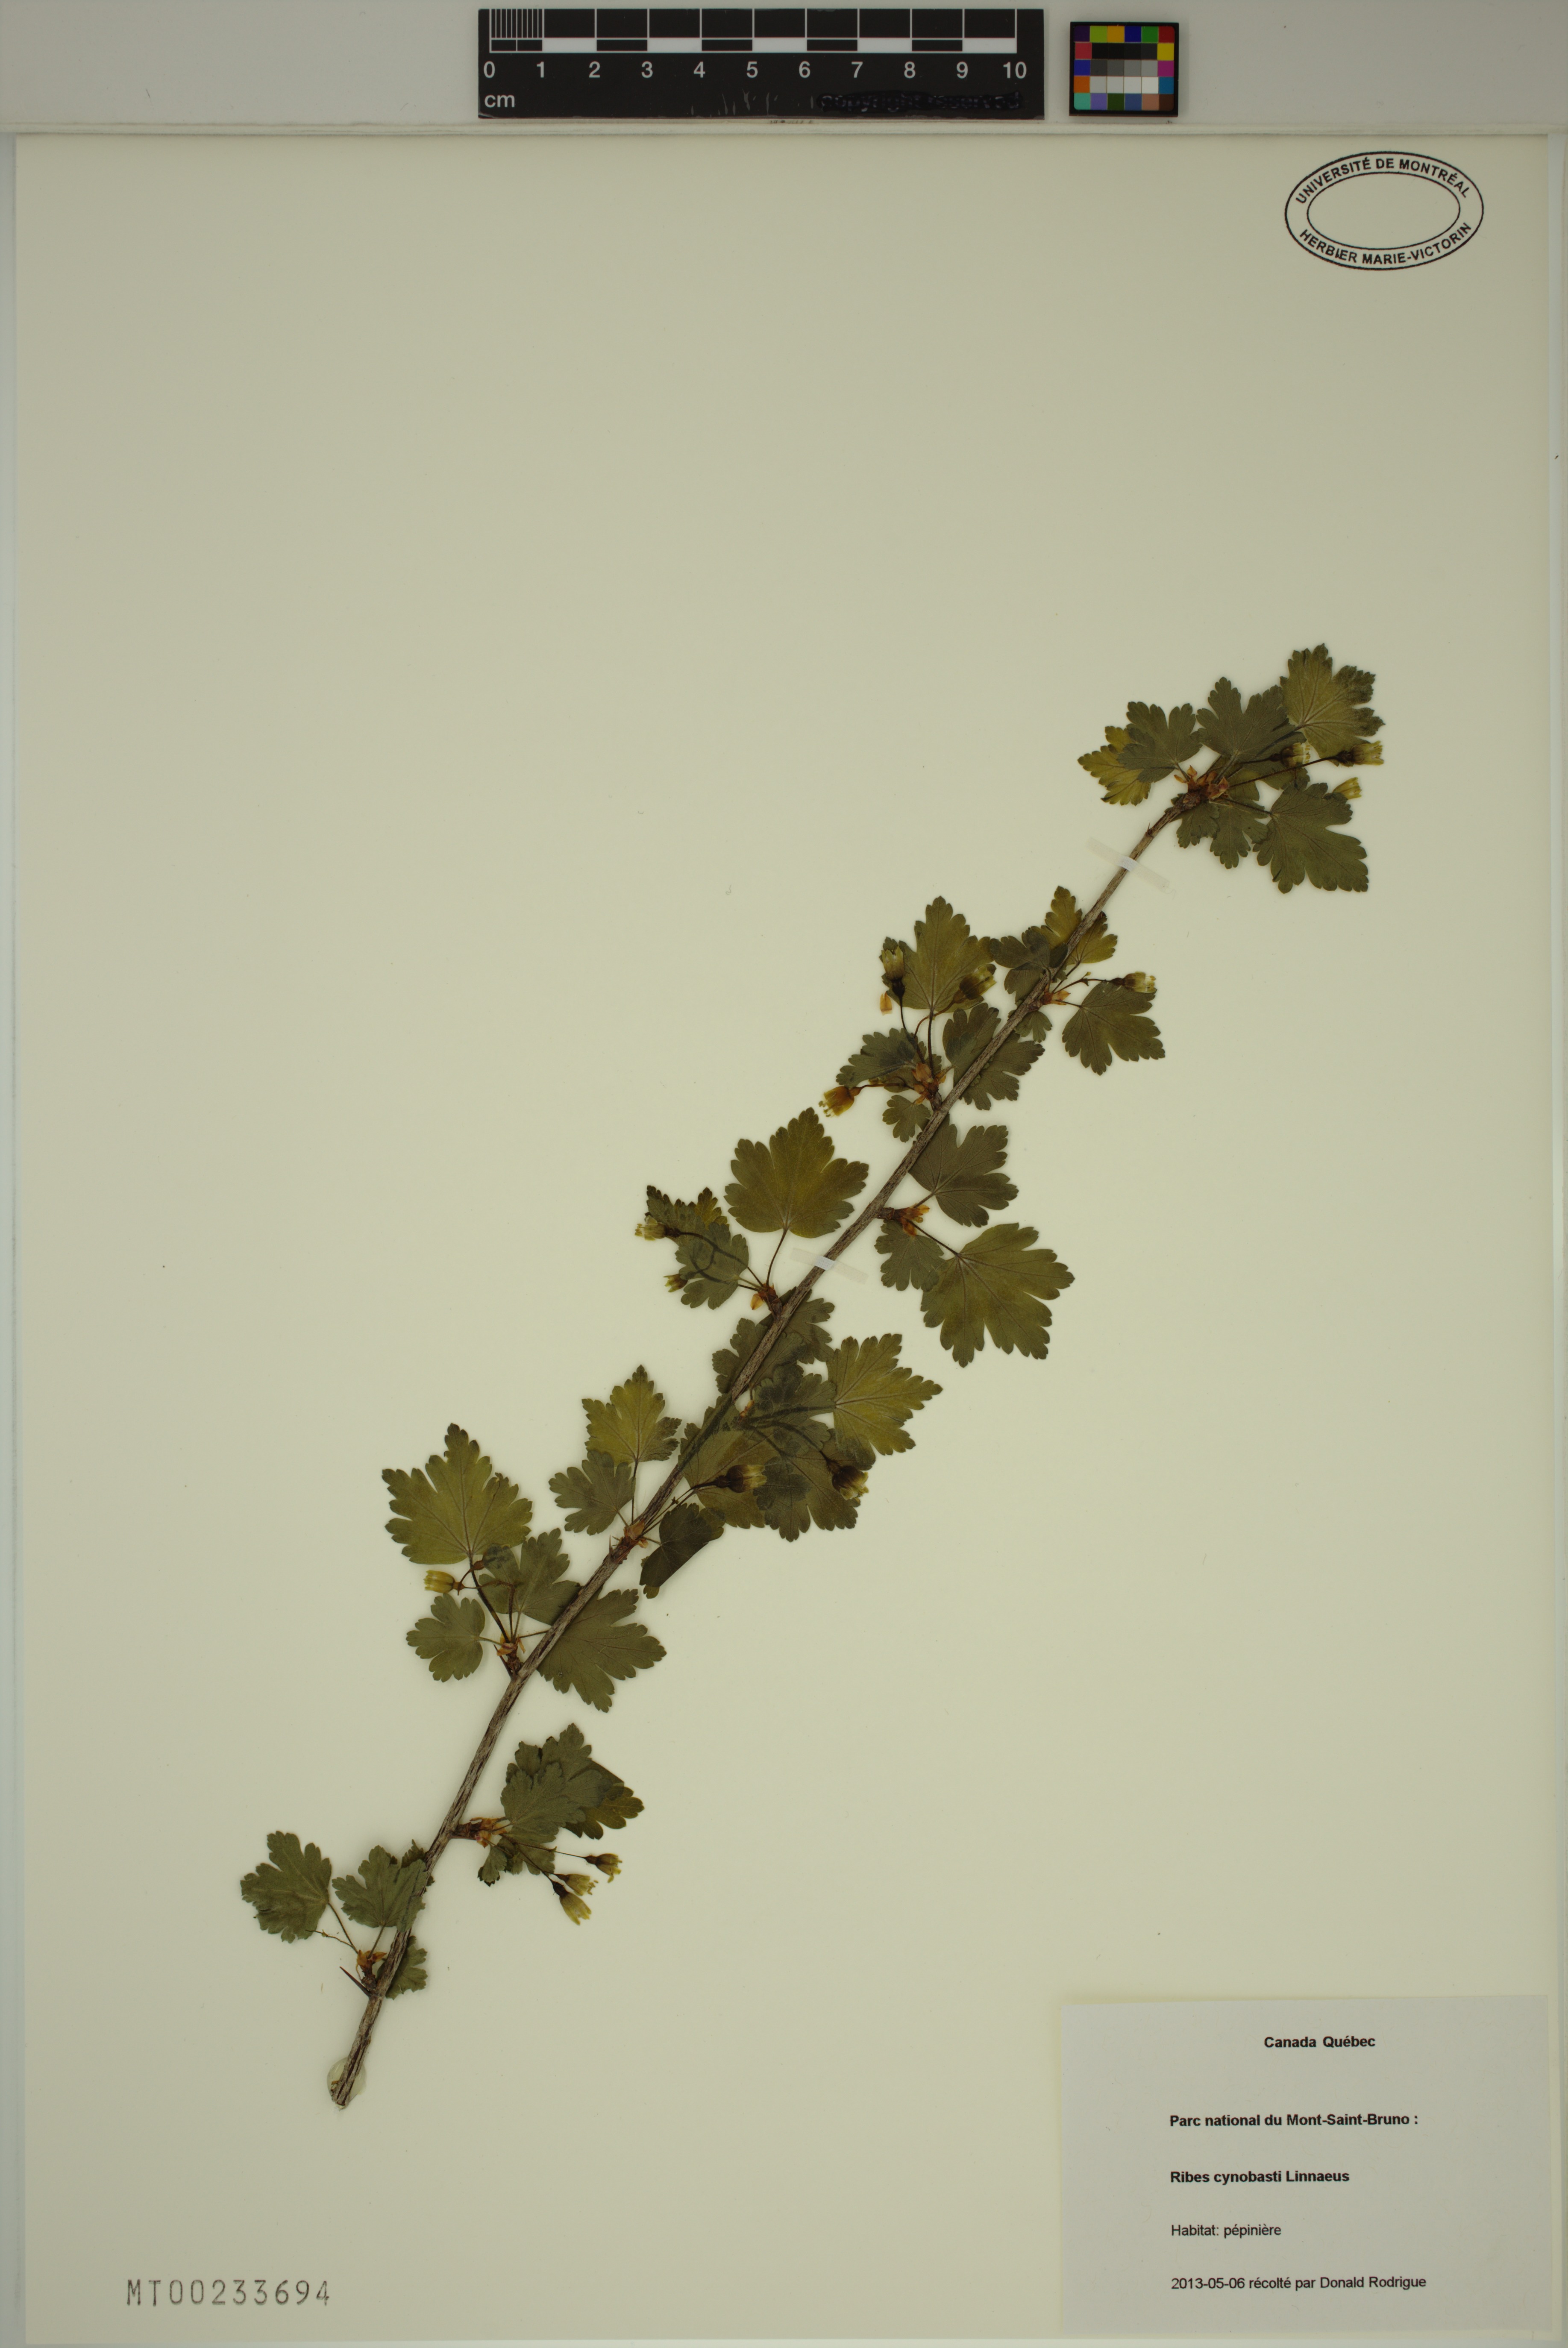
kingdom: Plantae
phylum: Tracheophyta
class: Magnoliopsida
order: Saxifragales
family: Grossulariaceae
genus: Ribes
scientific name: Ribes cynosbati
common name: American gooseberry
